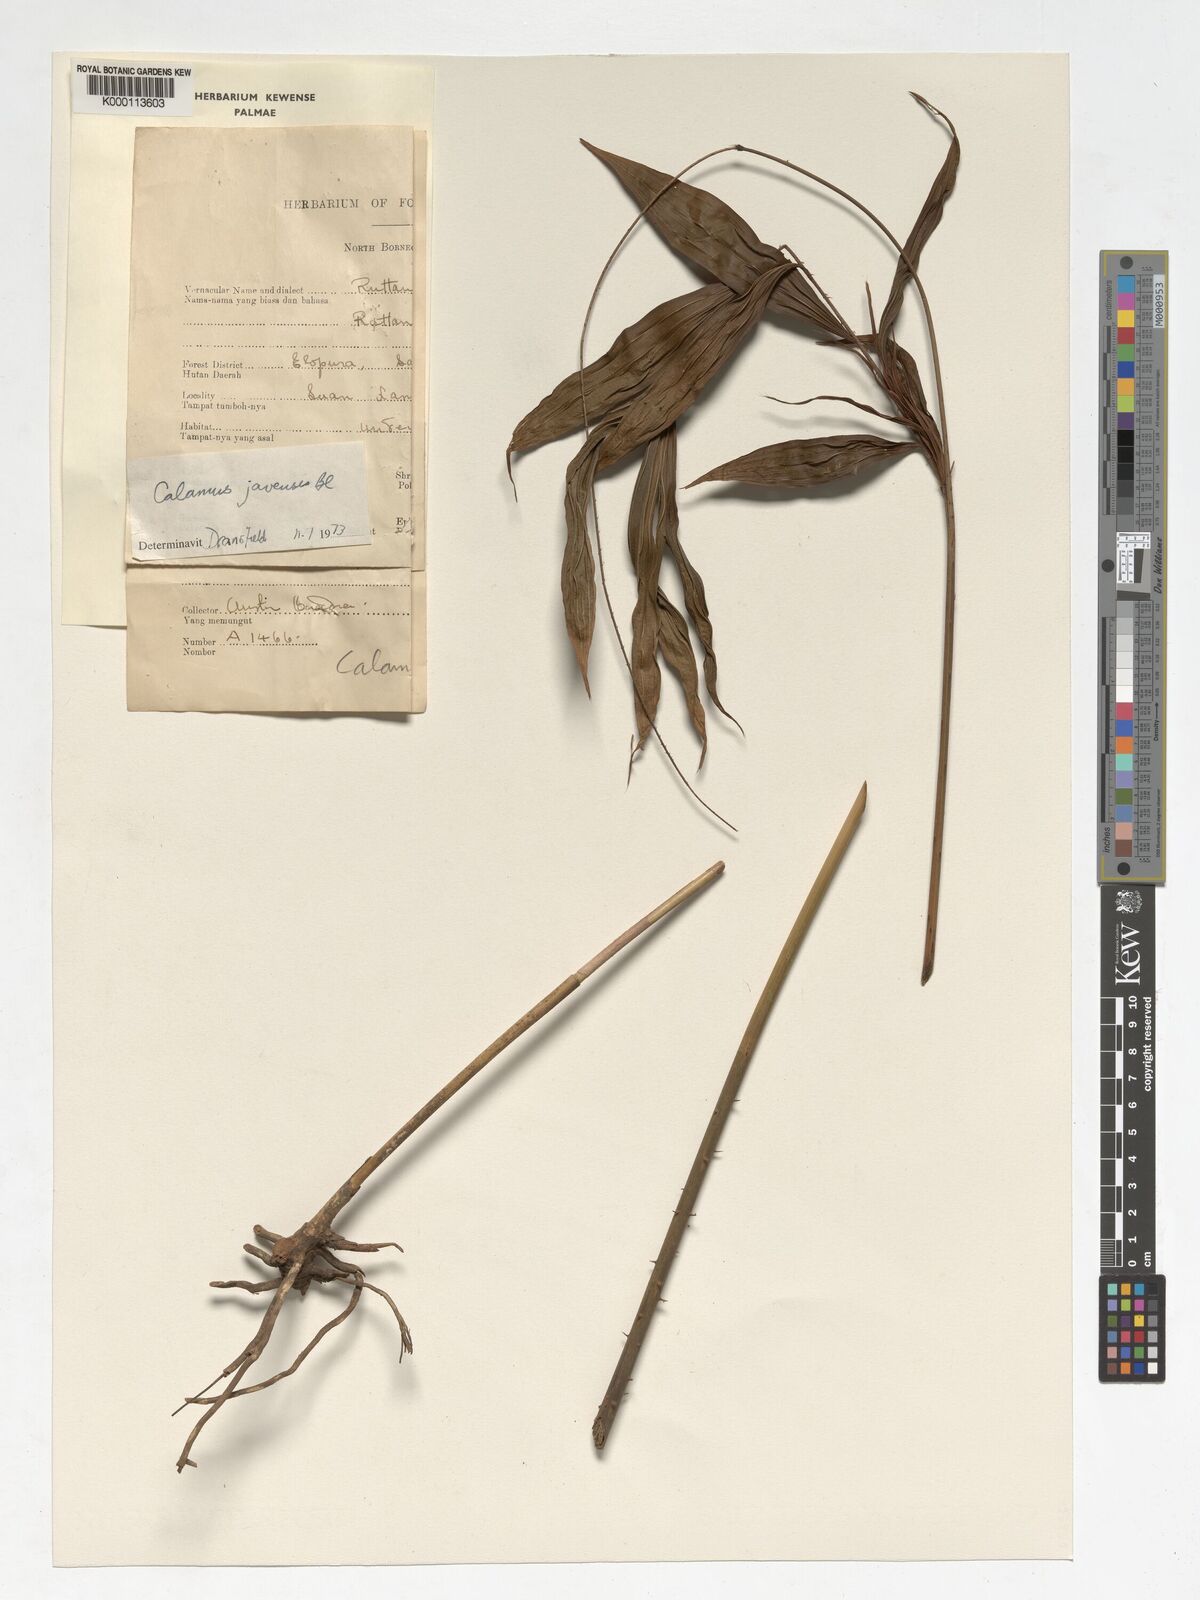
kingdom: Plantae
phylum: Tracheophyta
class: Liliopsida
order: Arecales
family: Arecaceae
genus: Calamus
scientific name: Calamus javensis
